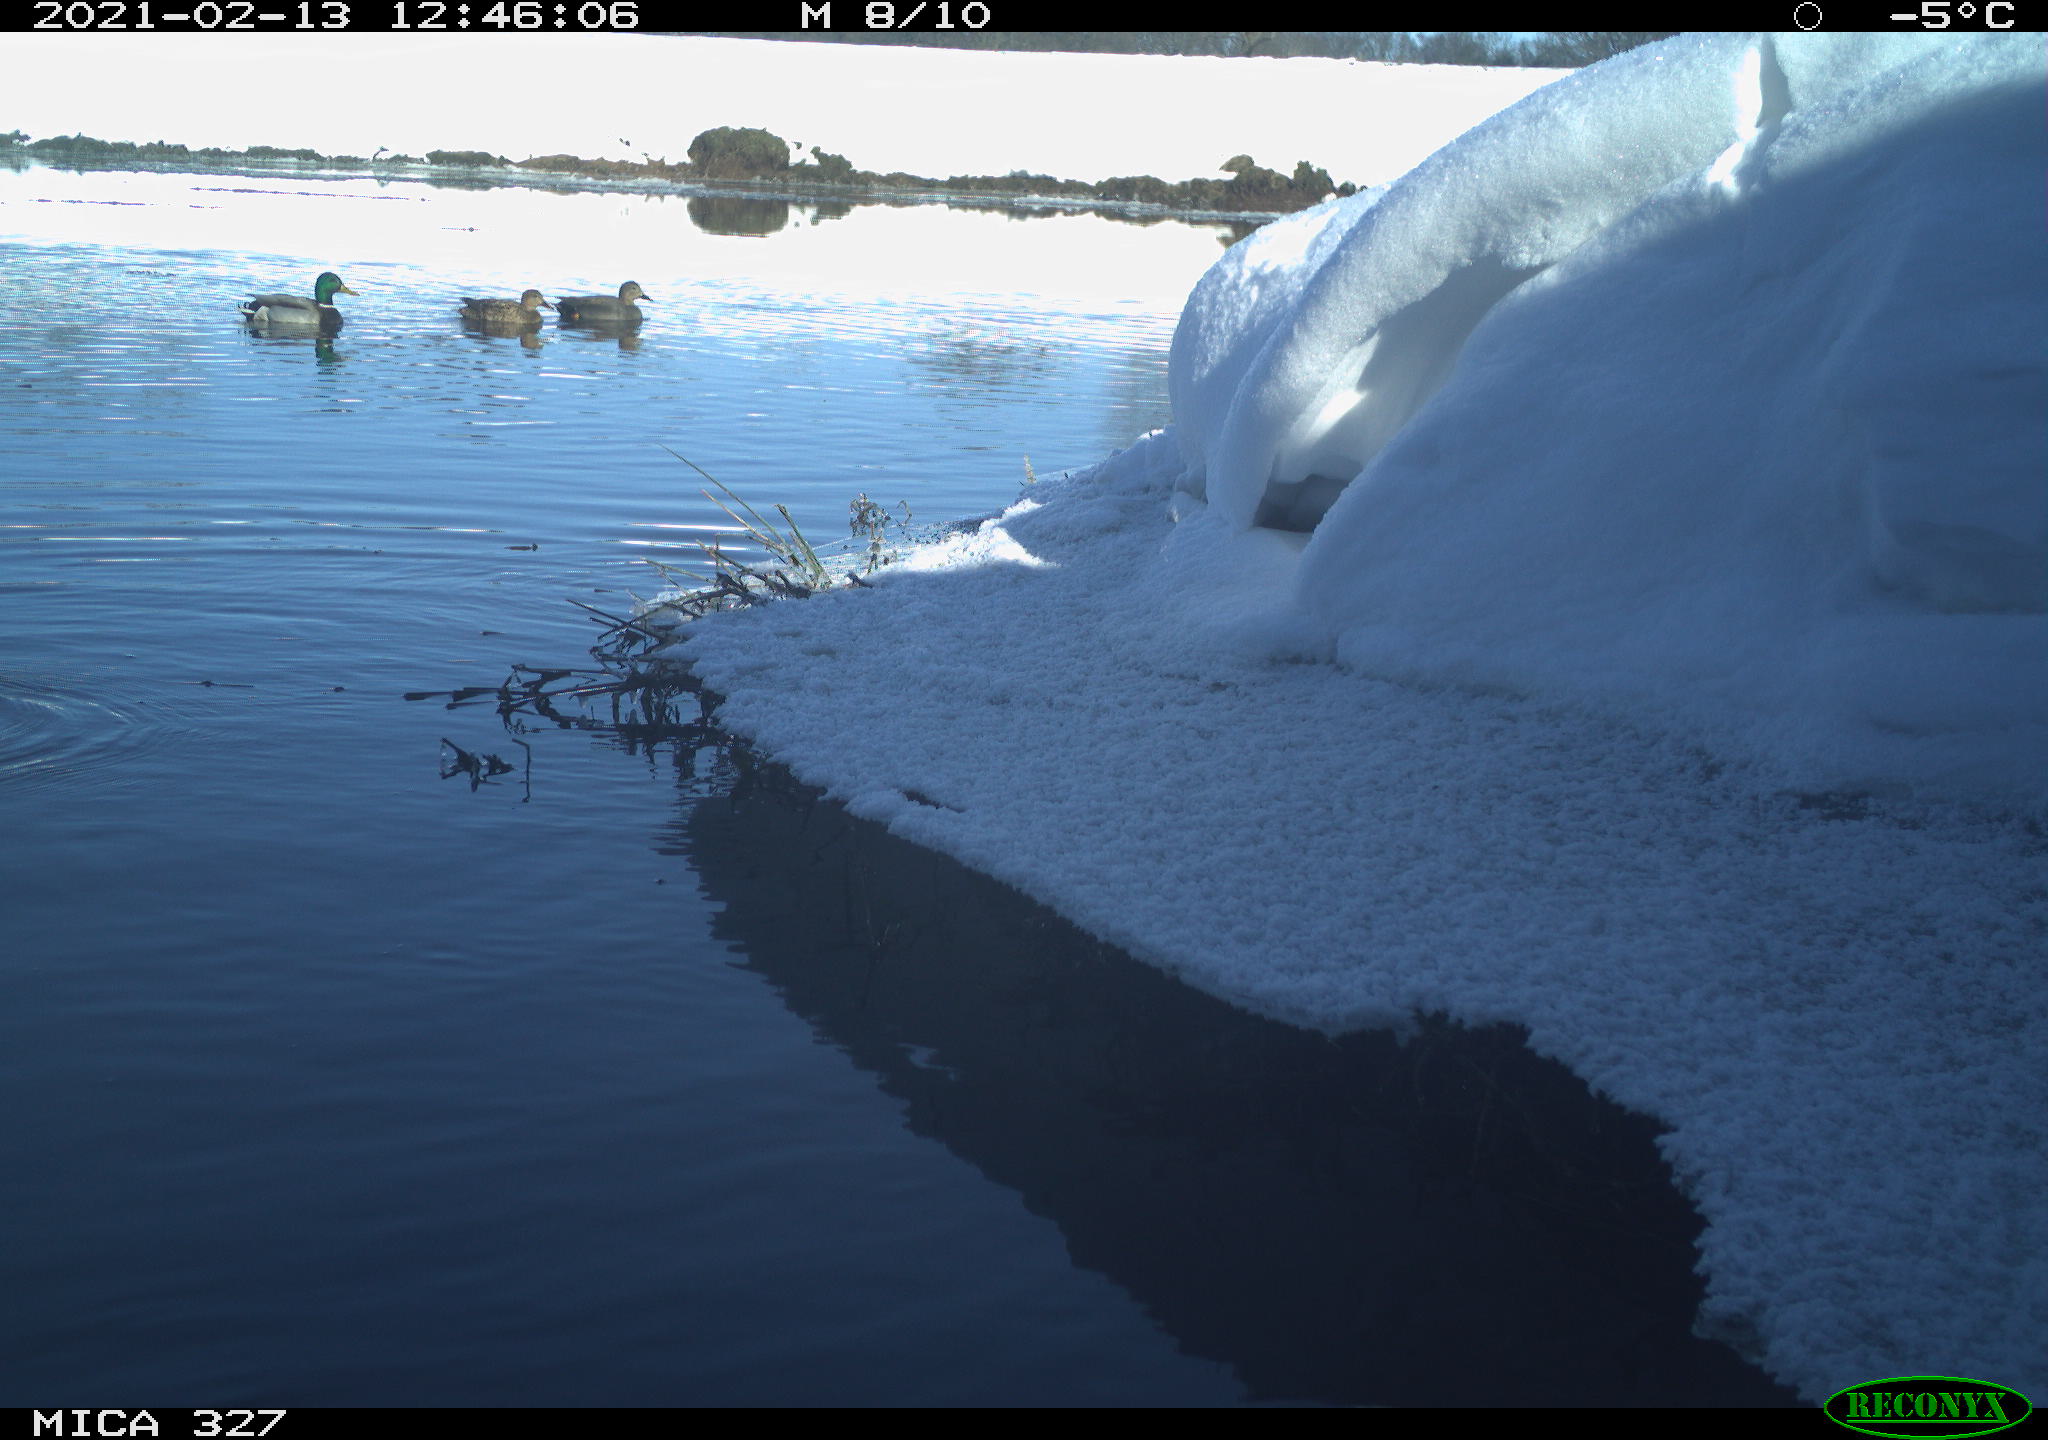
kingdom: Animalia
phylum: Chordata
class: Aves
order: Anseriformes
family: Anatidae
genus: Anas
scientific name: Anas platyrhynchos
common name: Mallard
